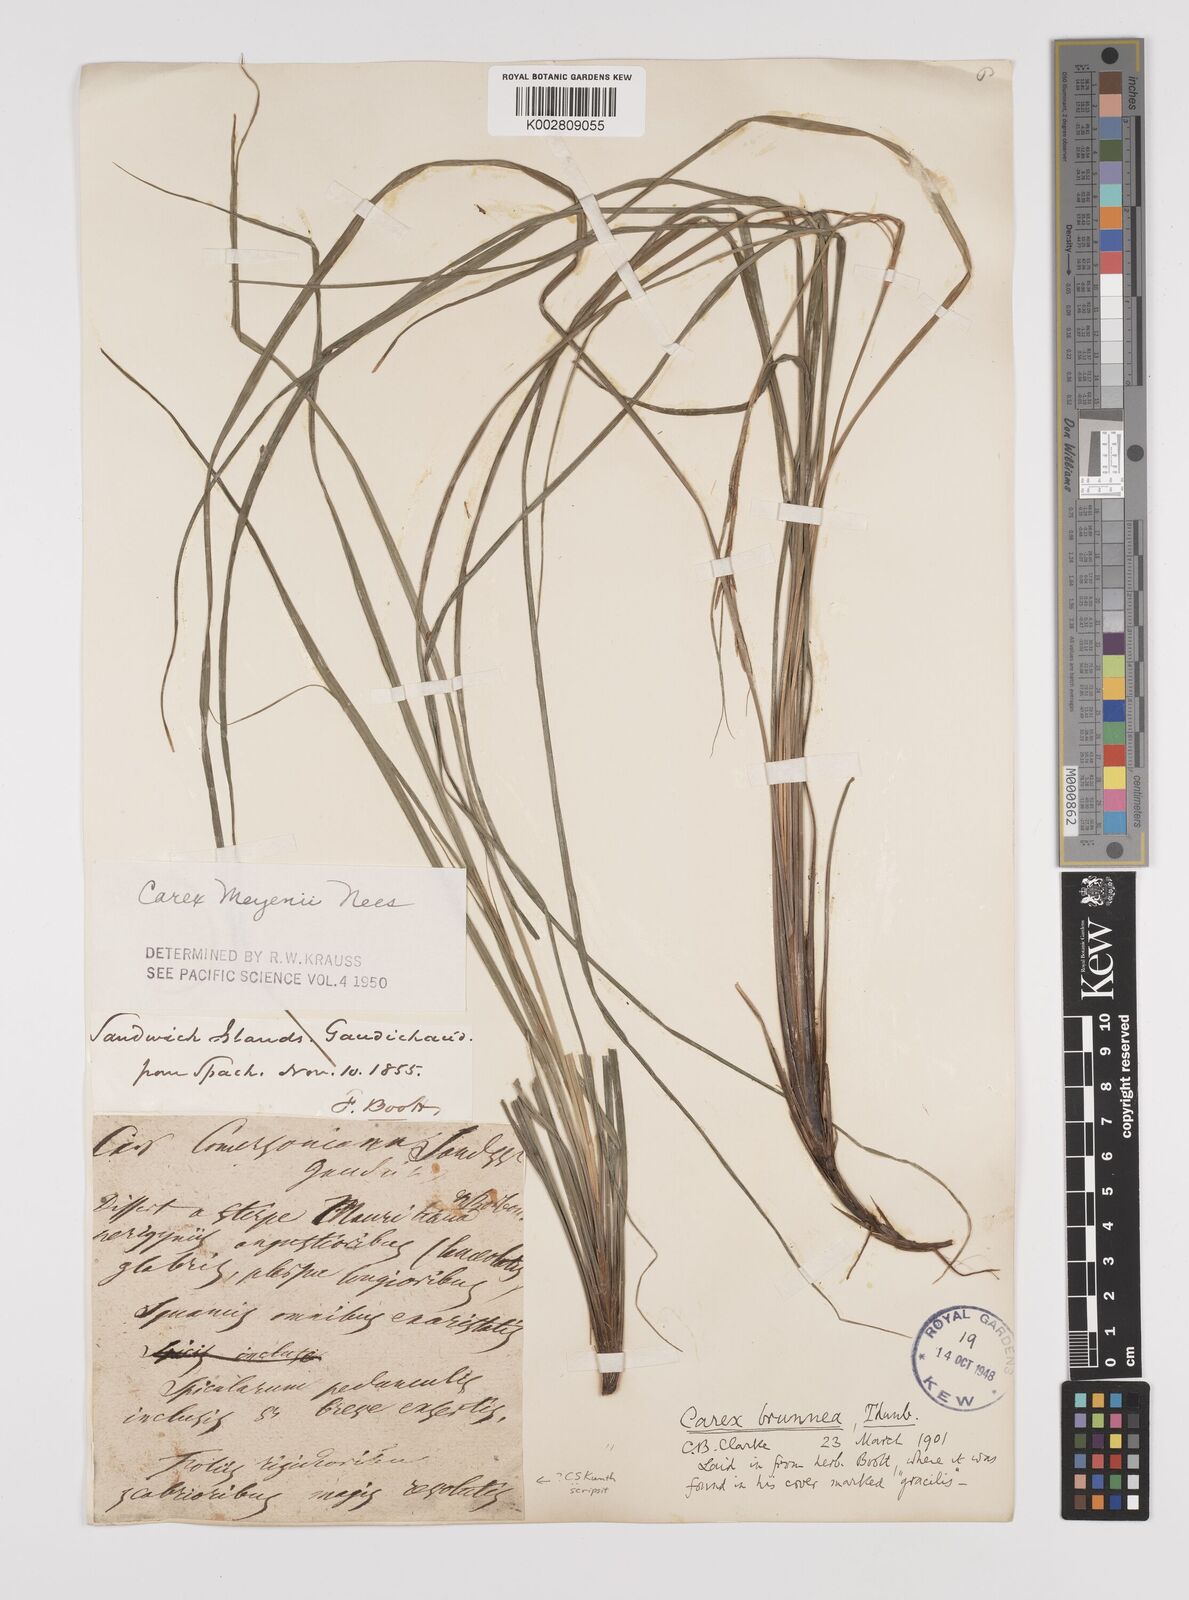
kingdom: Plantae
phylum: Tracheophyta
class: Liliopsida
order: Poales
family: Cyperaceae
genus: Carex
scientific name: Carex brunnea
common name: Greater brown sedge
